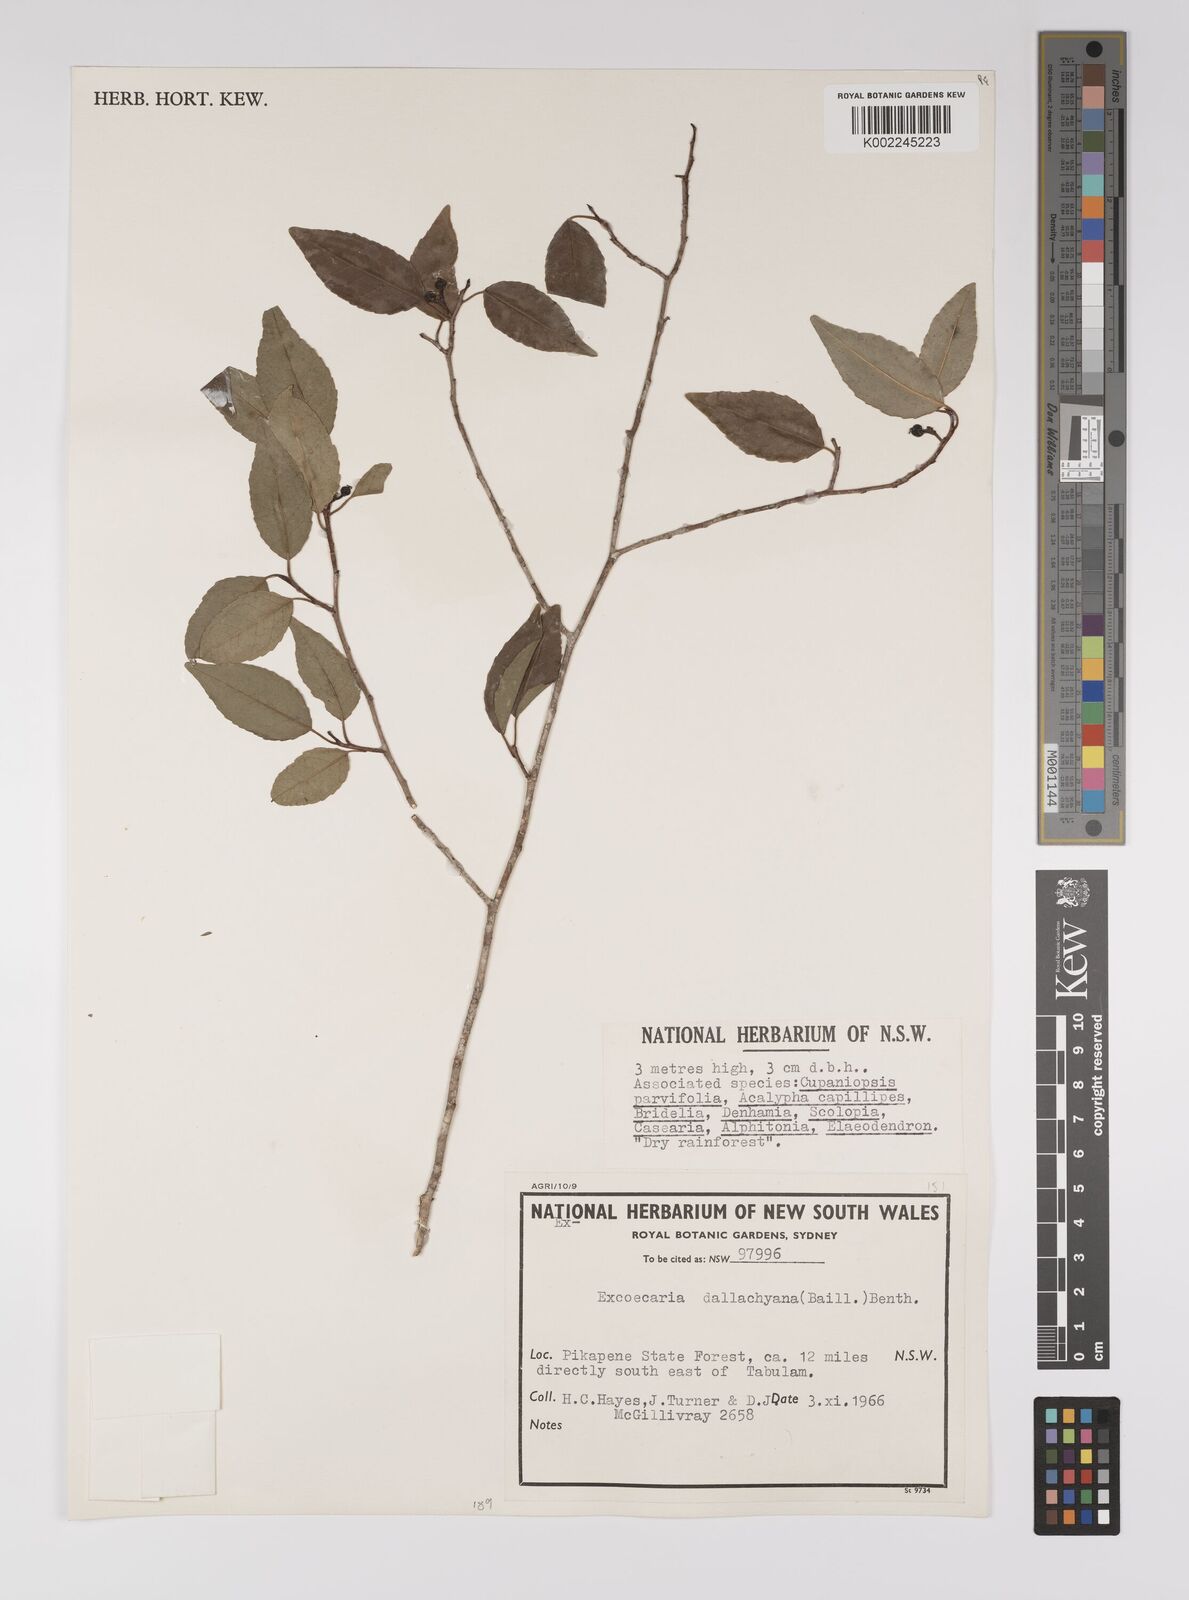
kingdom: Plantae
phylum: Tracheophyta
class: Magnoliopsida
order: Malpighiales
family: Euphorbiaceae
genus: Excoecaria
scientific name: Excoecaria dallachyana
